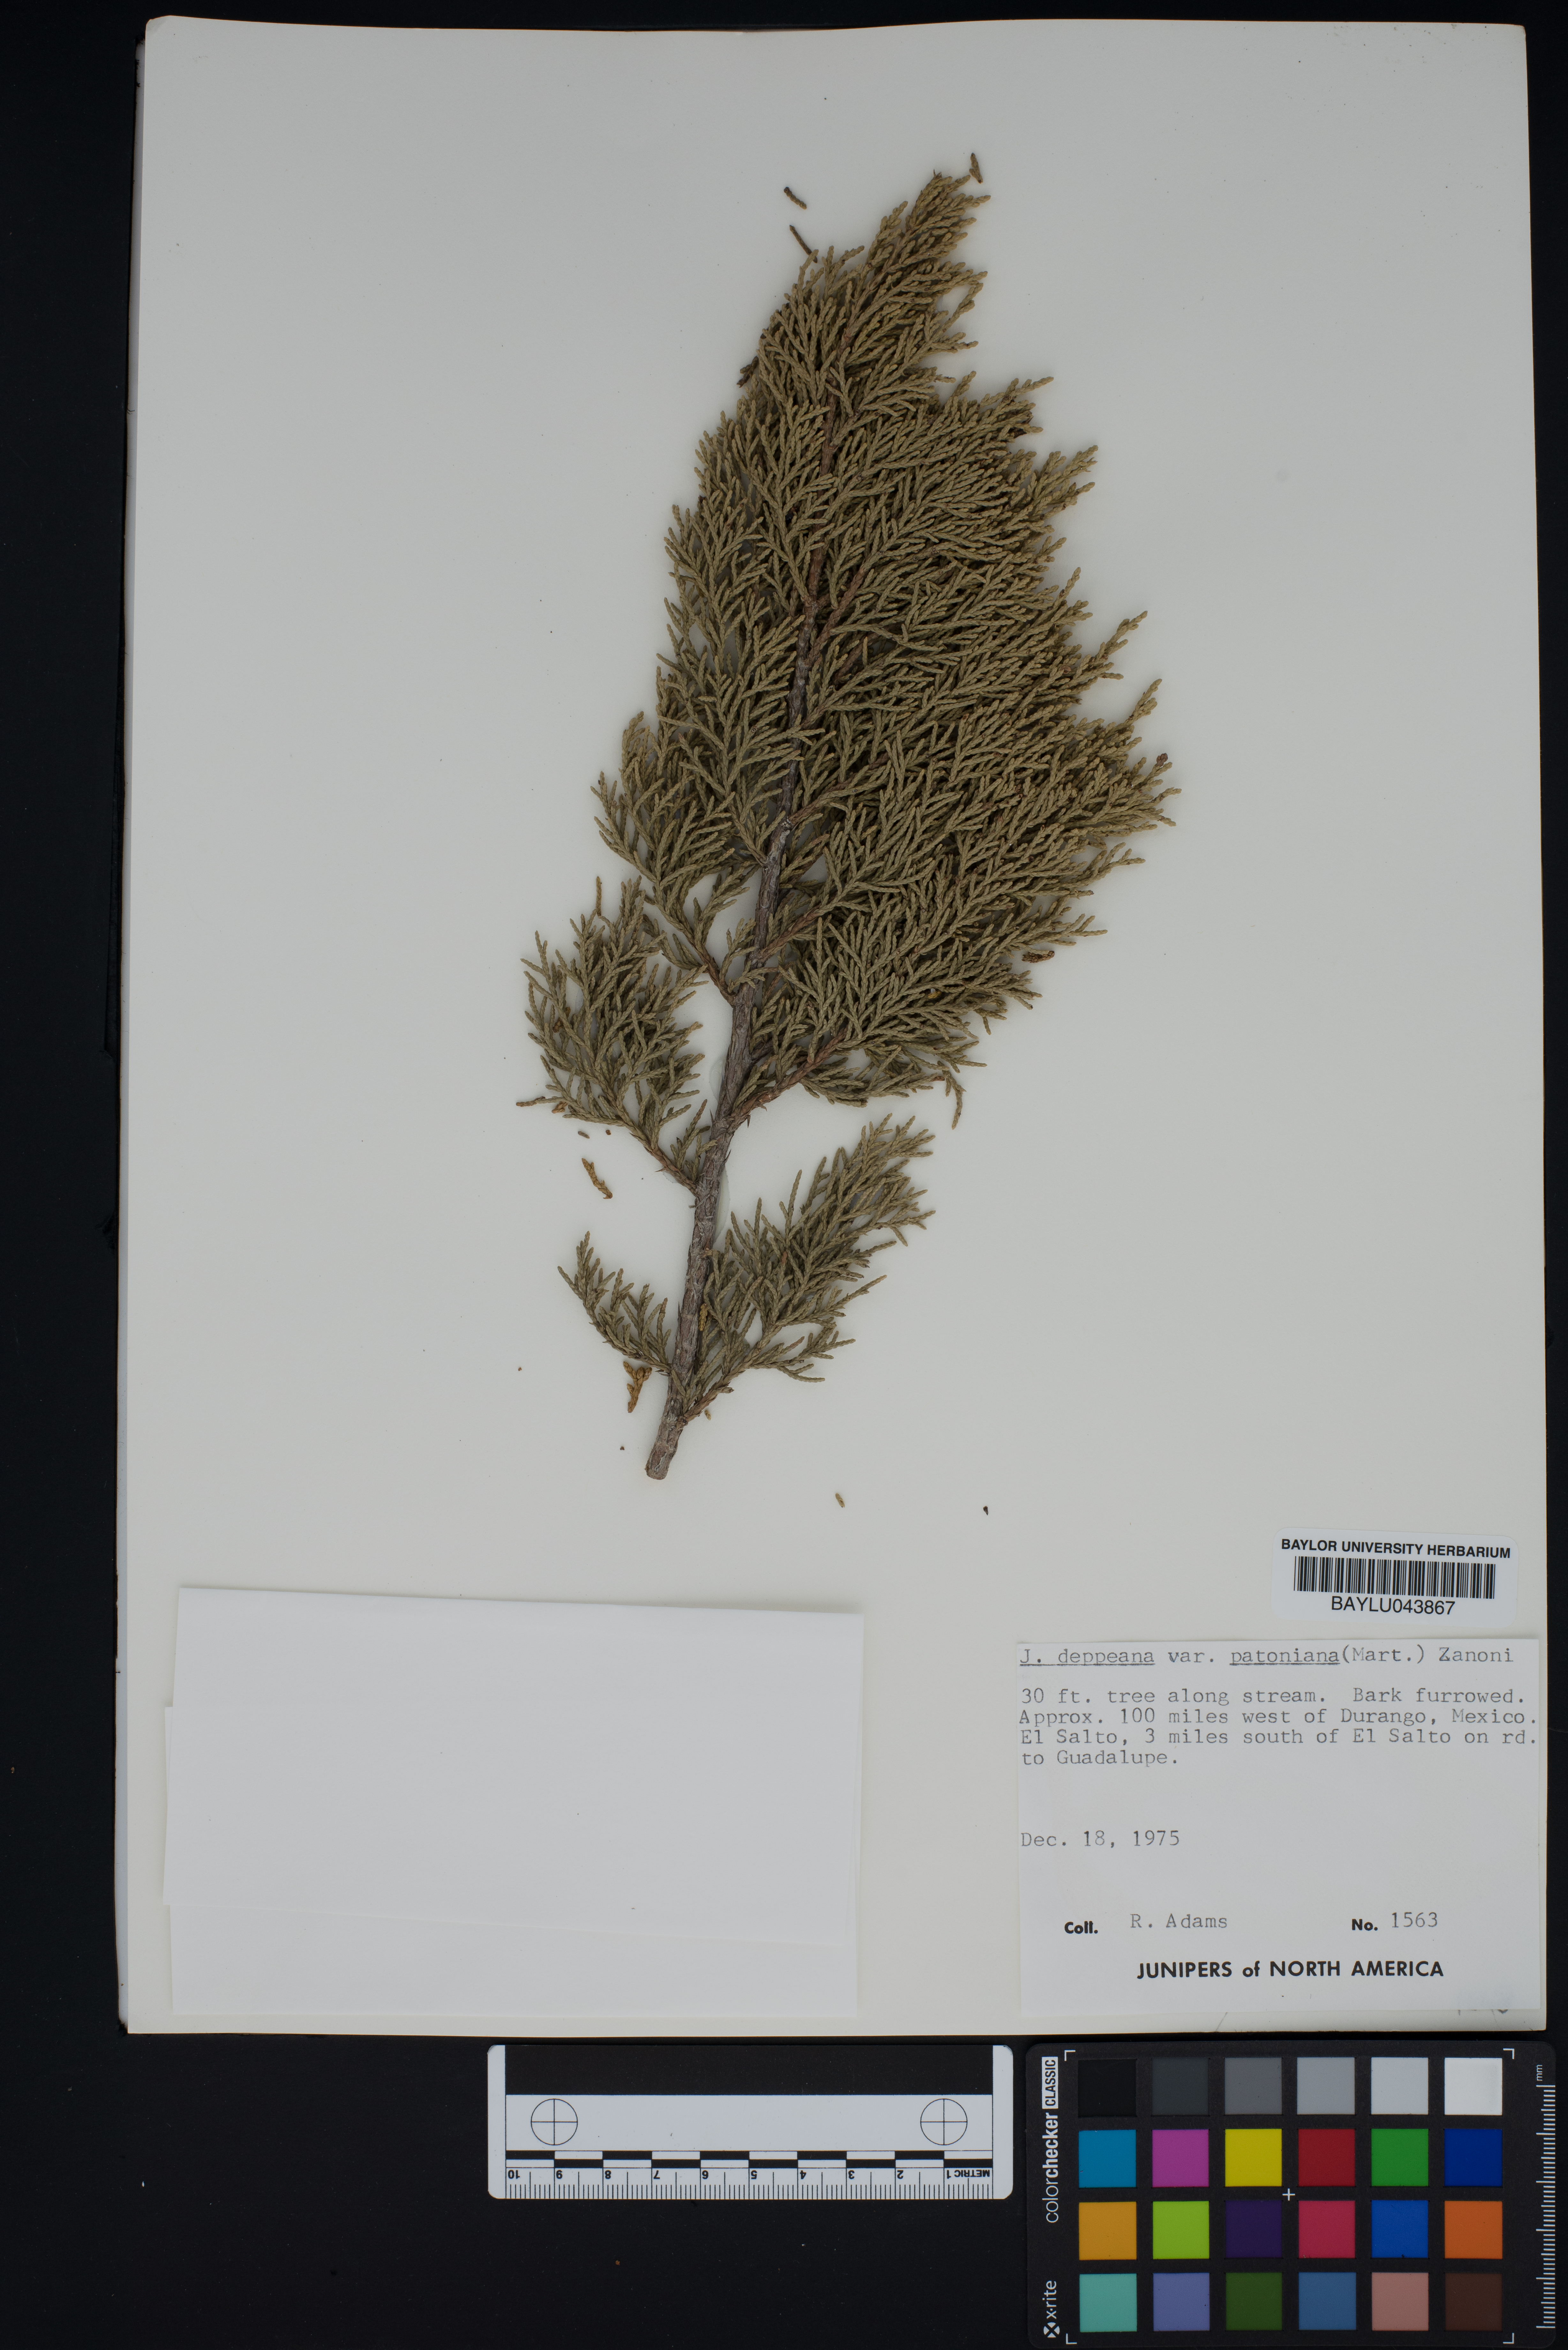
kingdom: Plantae
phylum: Tracheophyta
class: Pinopsida
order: Pinales
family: Cupressaceae
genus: Juniperus
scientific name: Juniperus deppeana
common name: Alligator juniper
